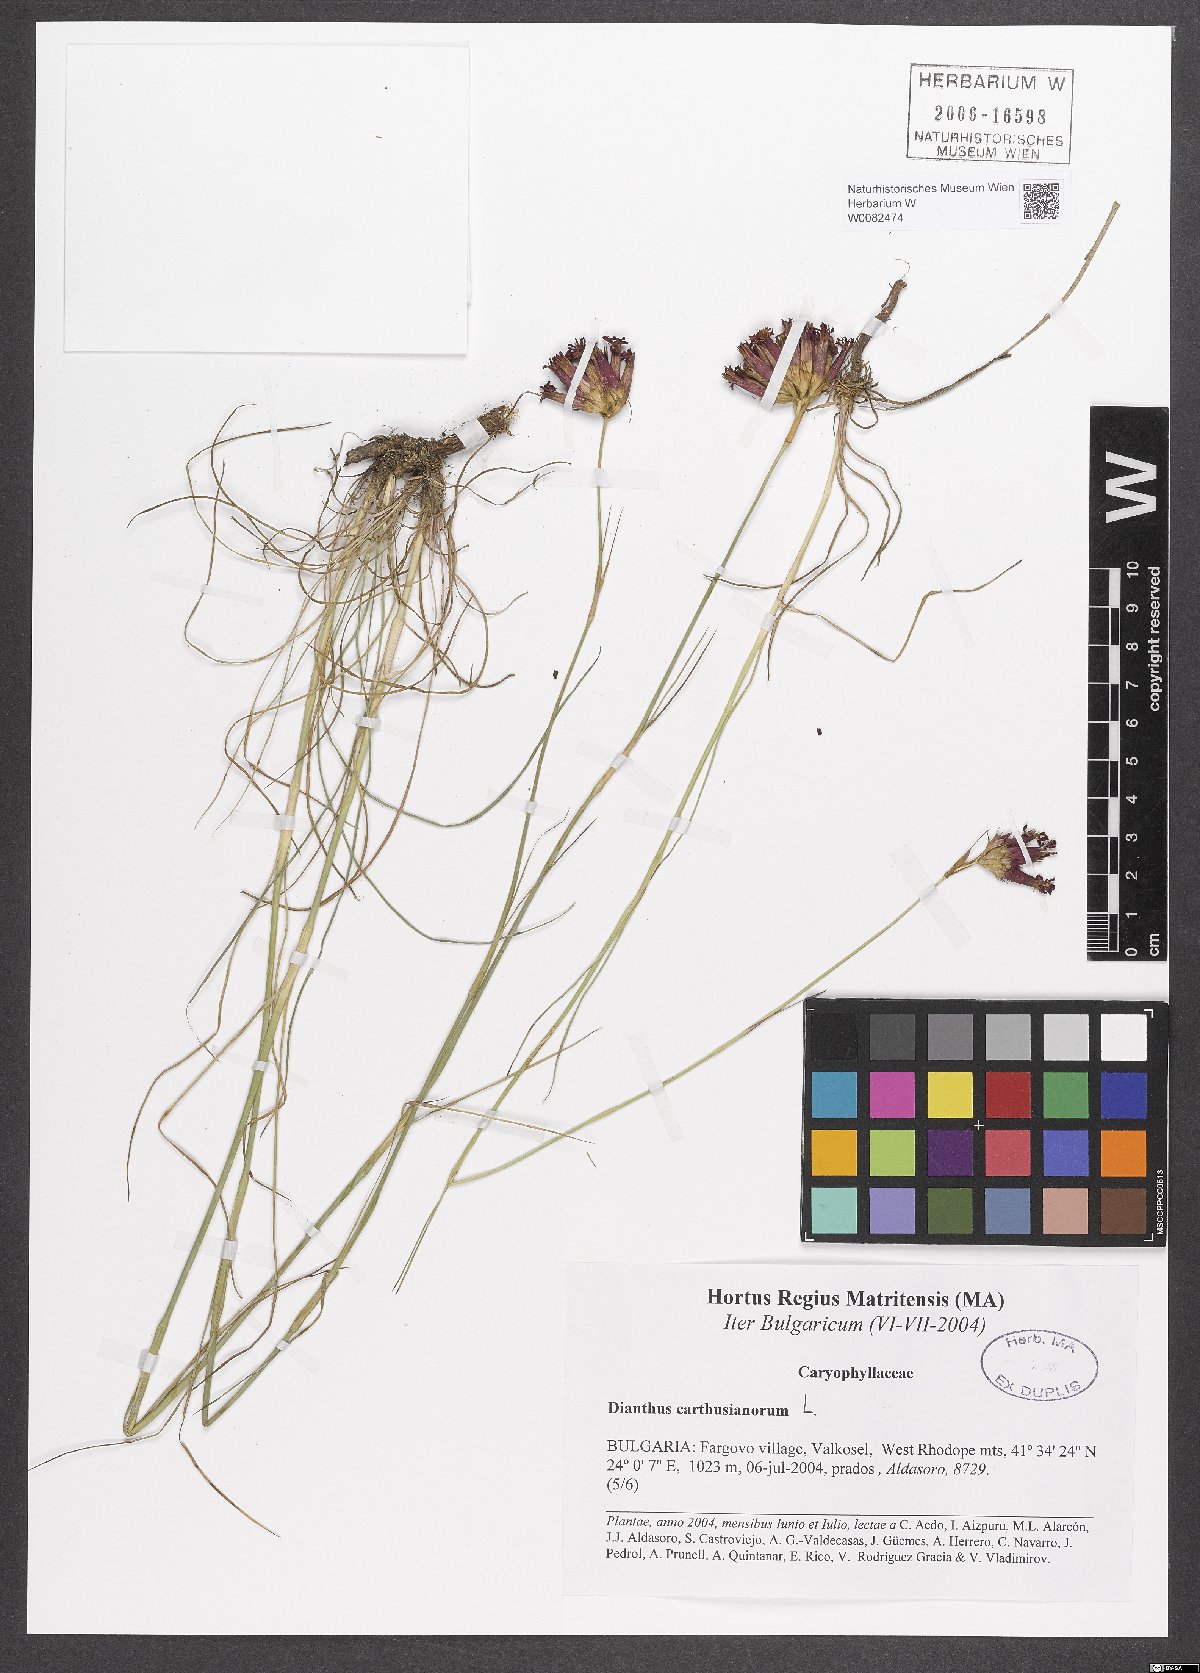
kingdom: Plantae
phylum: Tracheophyta
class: Magnoliopsida
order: Caryophyllales
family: Caryophyllaceae
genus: Dianthus
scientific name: Dianthus carthusianorum
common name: Carthusian pink
